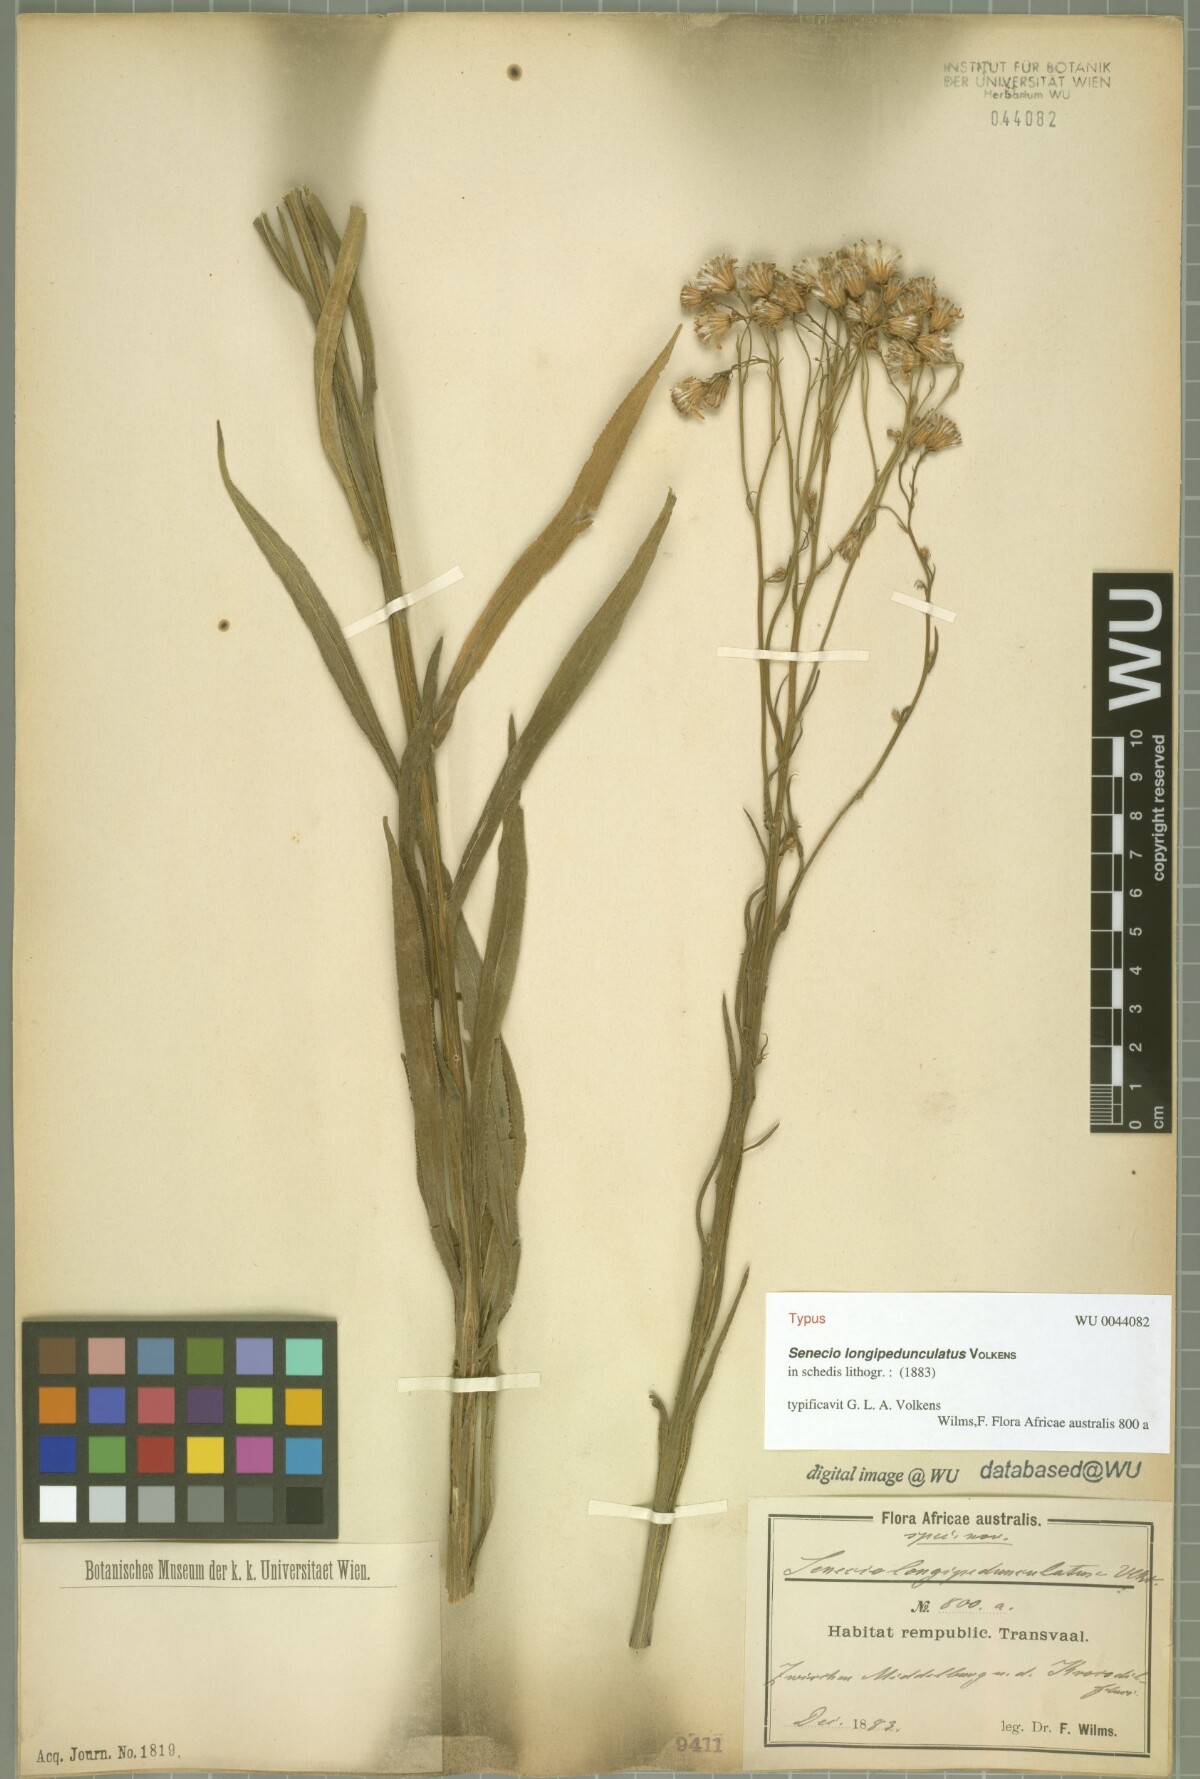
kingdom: Plantae
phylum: Tracheophyta
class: Magnoliopsida
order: Asterales
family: Asteraceae
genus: Senecio
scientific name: Senecio serra
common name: Tall ragwort
